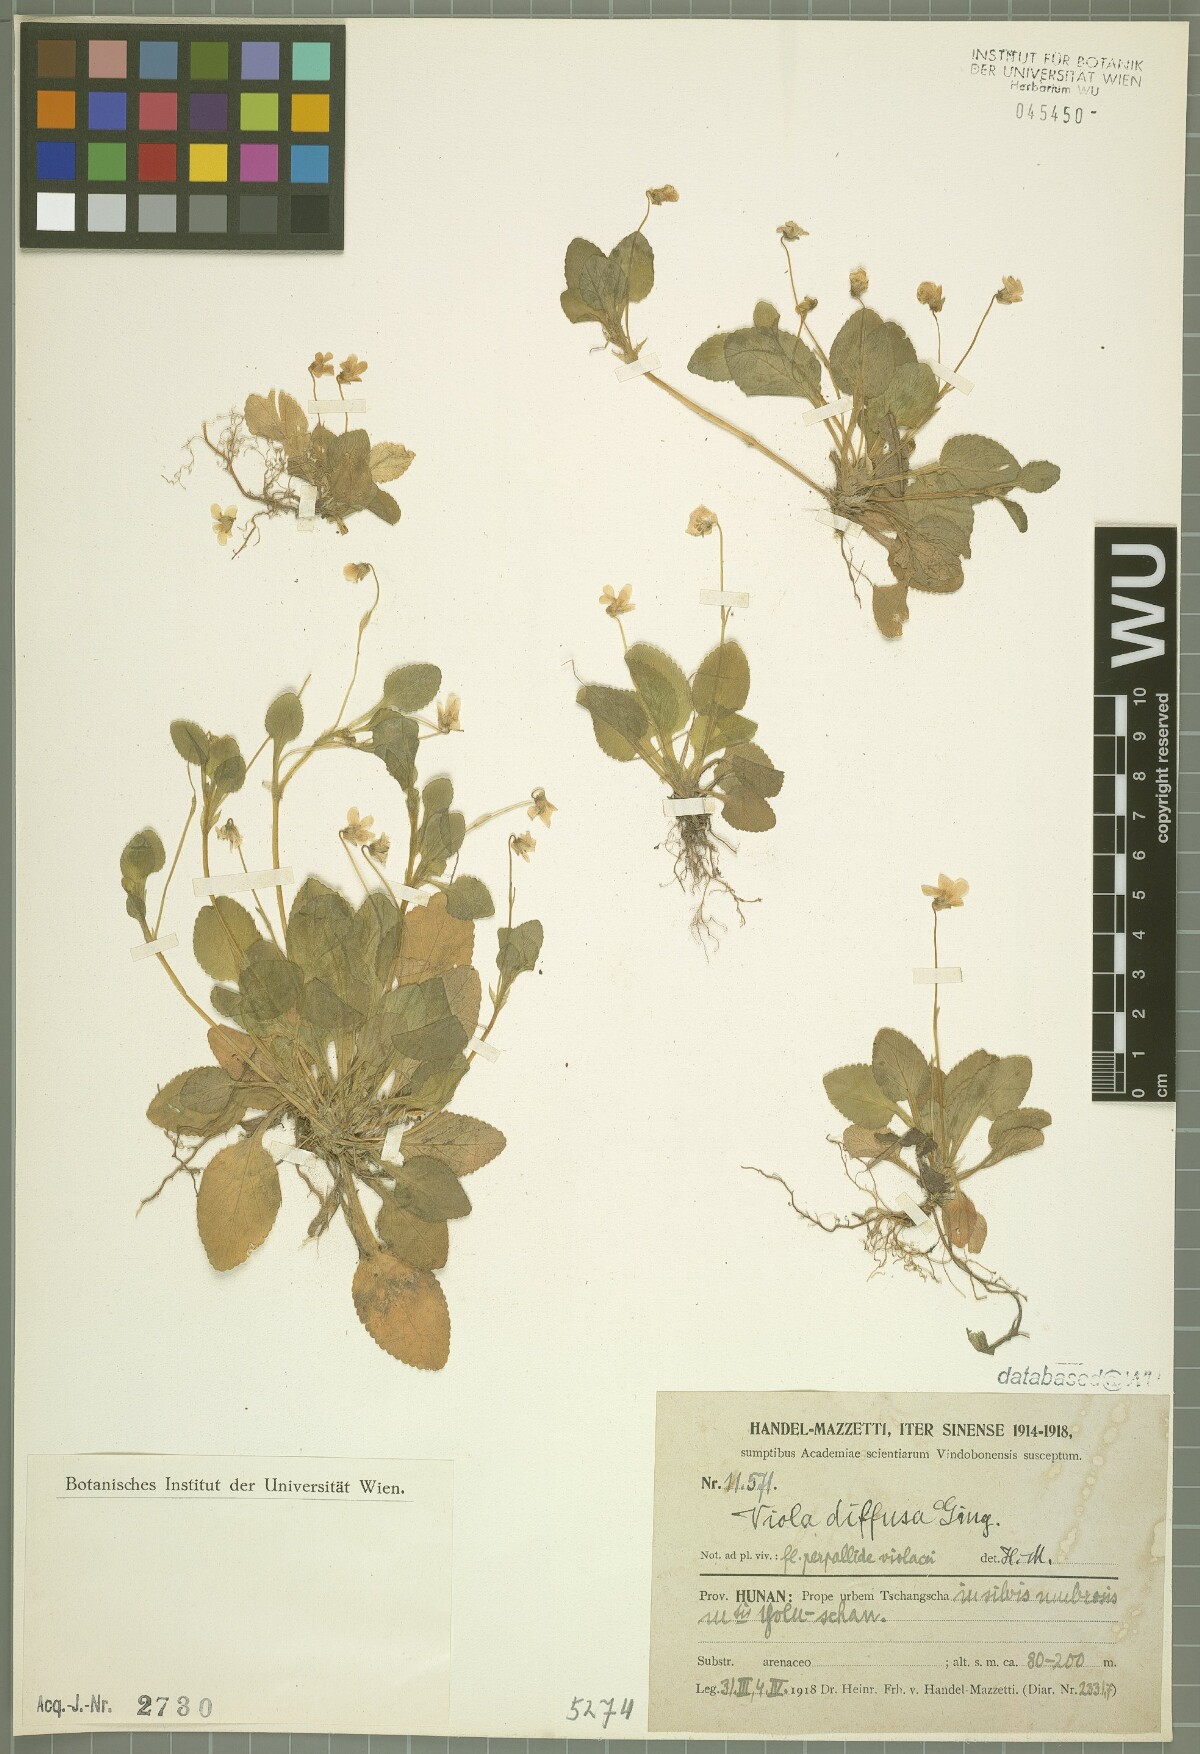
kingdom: Plantae
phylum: Tracheophyta
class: Magnoliopsida
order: Malpighiales
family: Violaceae
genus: Viola
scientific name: Viola diffusa
